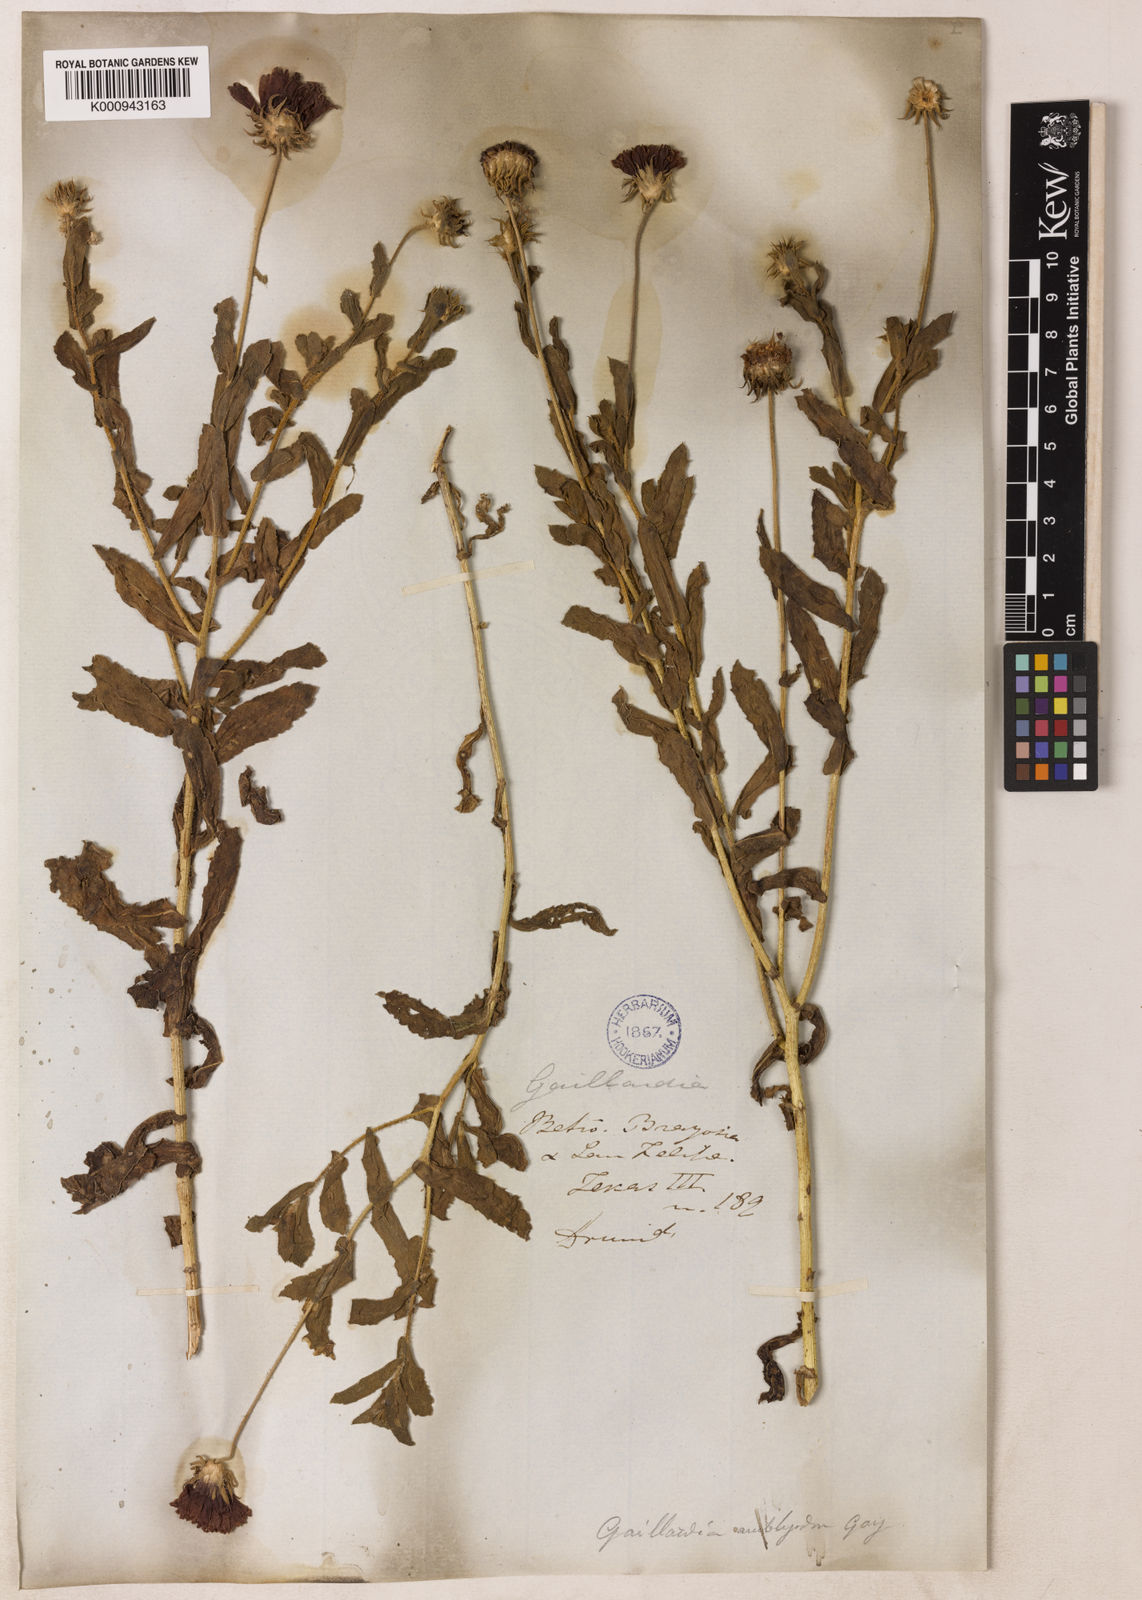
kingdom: Plantae
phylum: Tracheophyta
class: Magnoliopsida
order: Asterales
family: Asteraceae
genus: Gaillardia
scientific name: Gaillardia amblyodon
